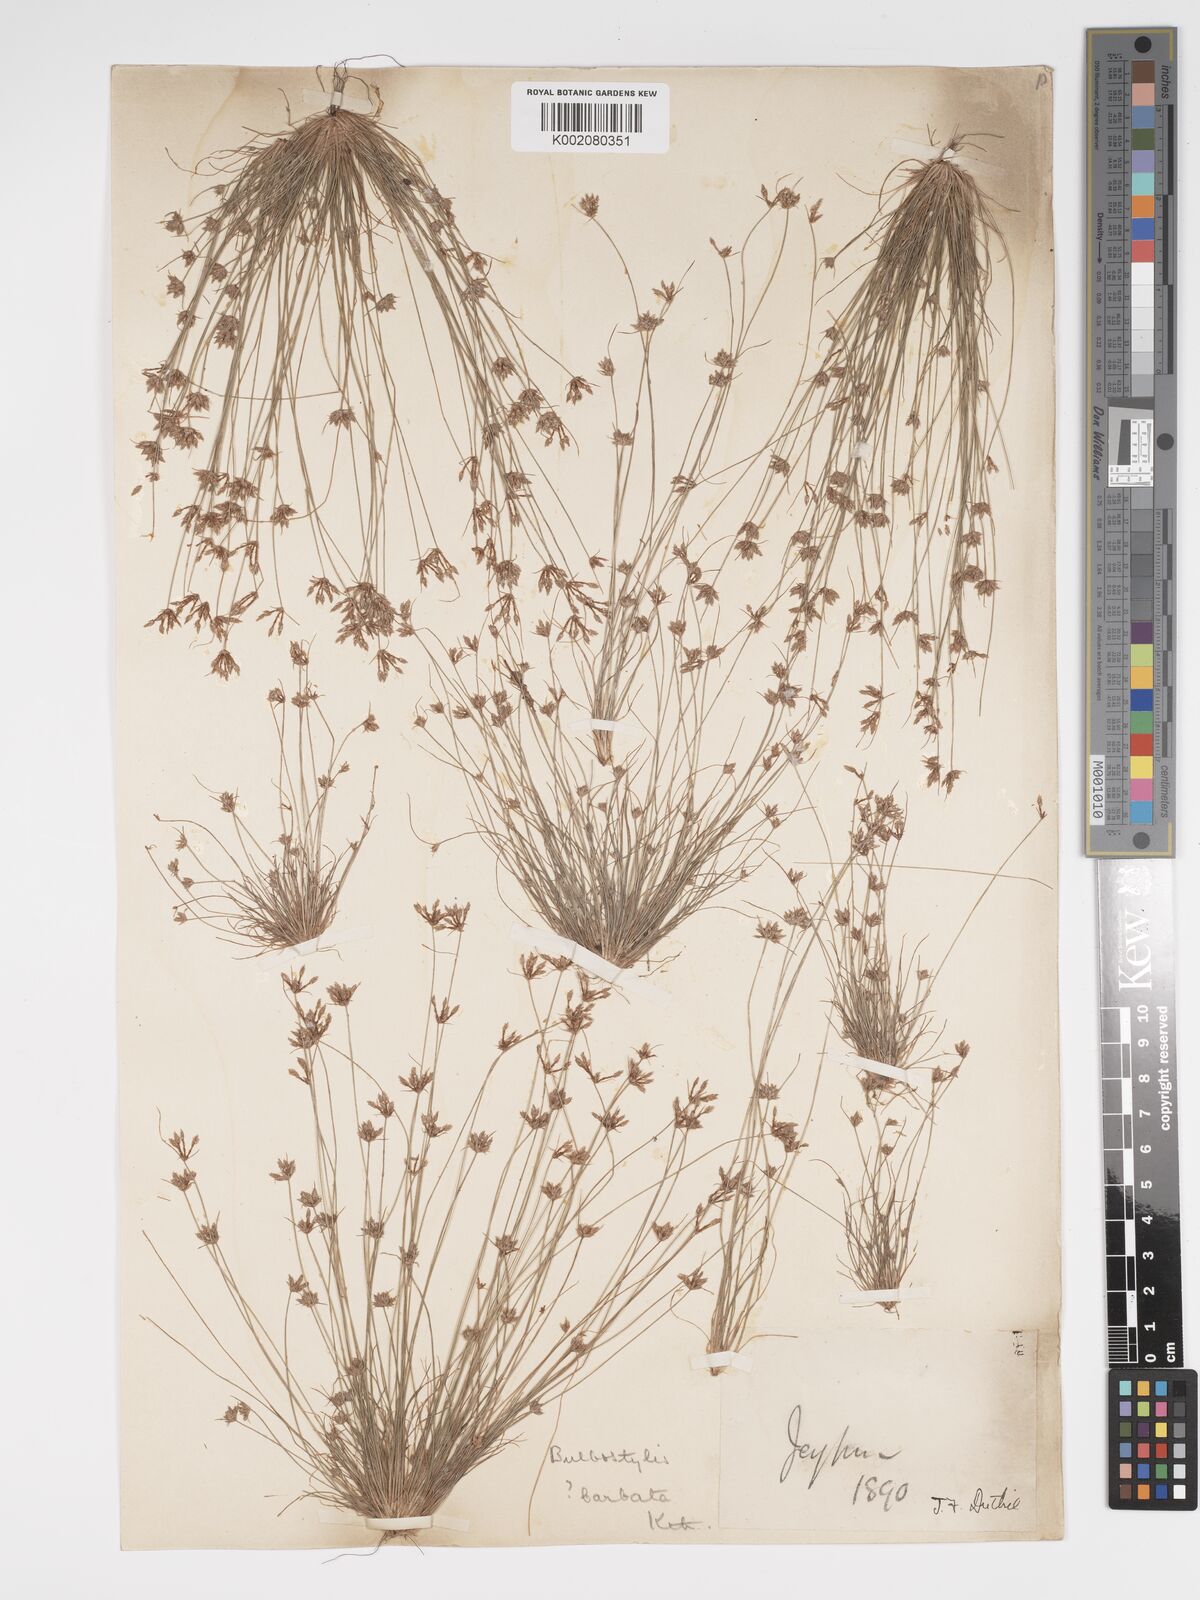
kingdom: Plantae
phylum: Tracheophyta
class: Liliopsida
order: Poales
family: Cyperaceae
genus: Bulbostylis
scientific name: Bulbostylis barbata
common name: Watergrass
